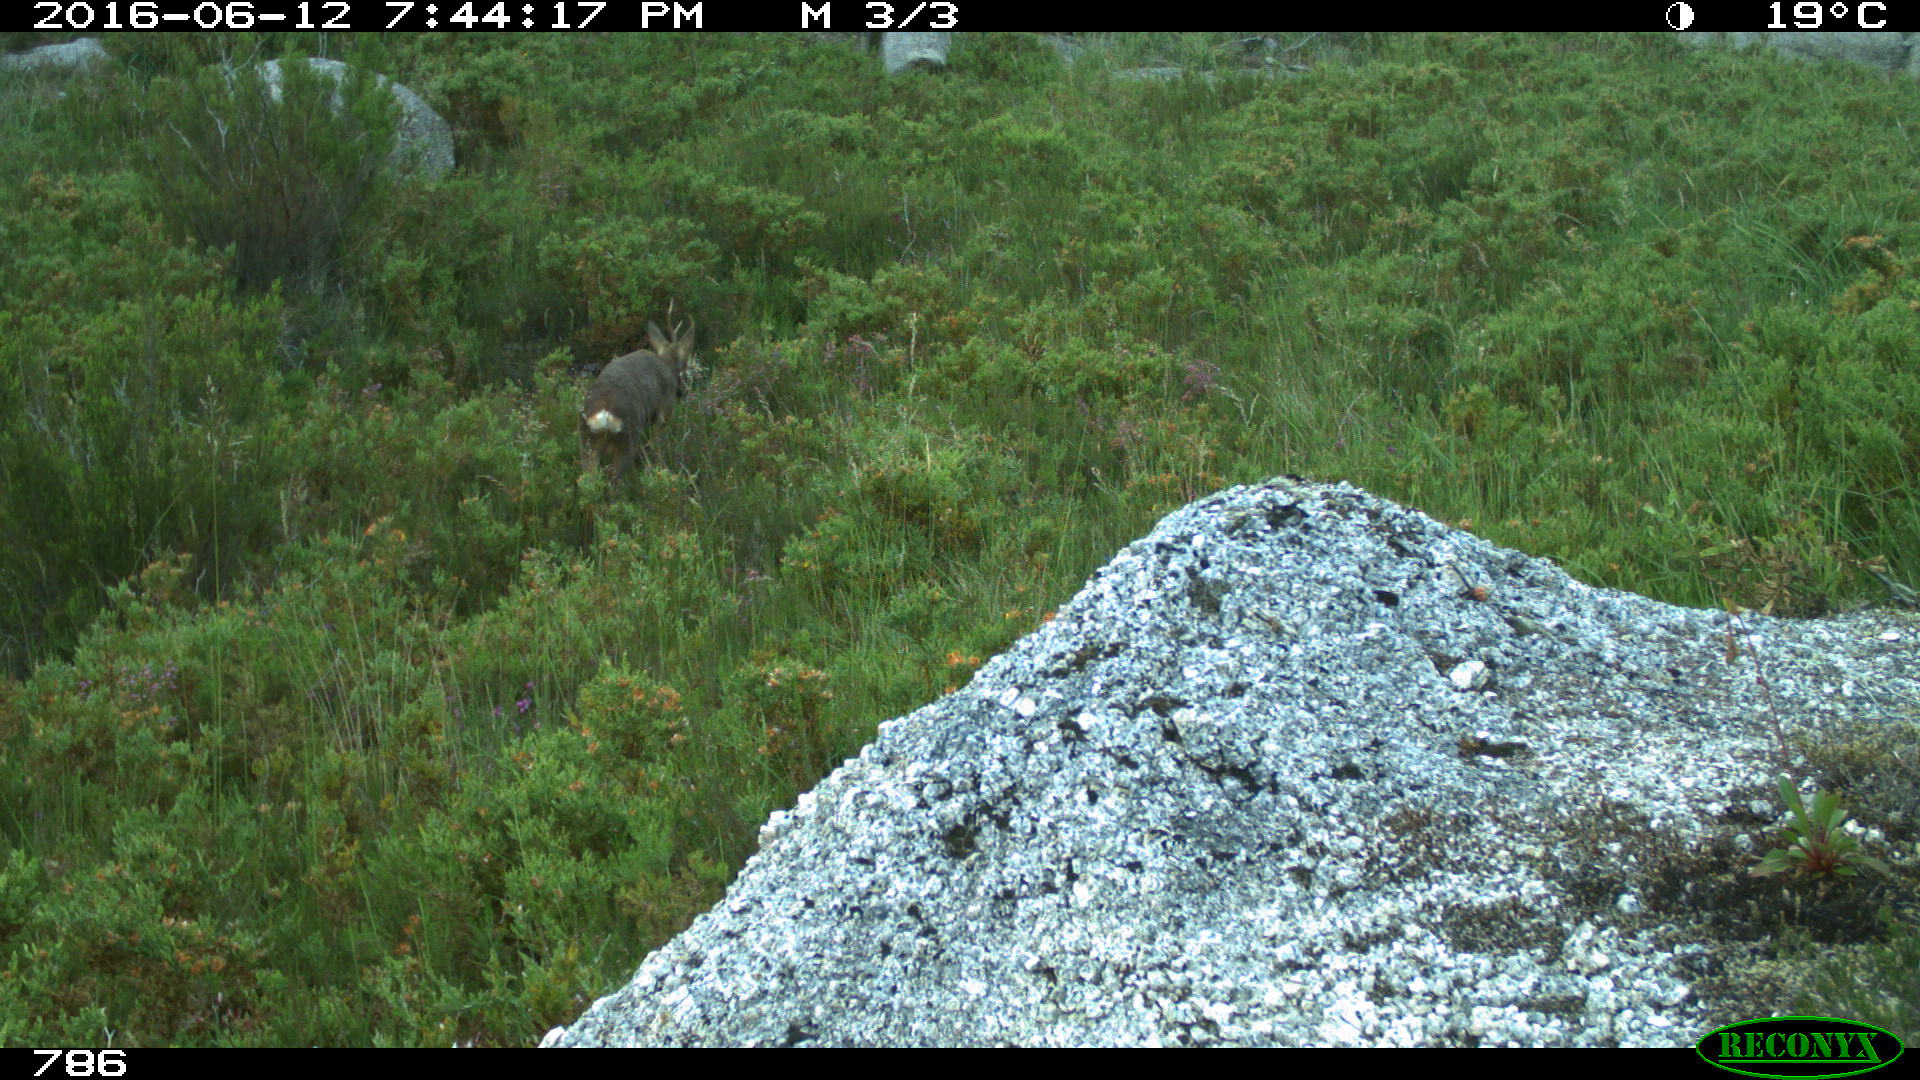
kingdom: Animalia
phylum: Chordata
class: Mammalia
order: Artiodactyla
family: Cervidae
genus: Capreolus
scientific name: Capreolus capreolus
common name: Western roe deer
